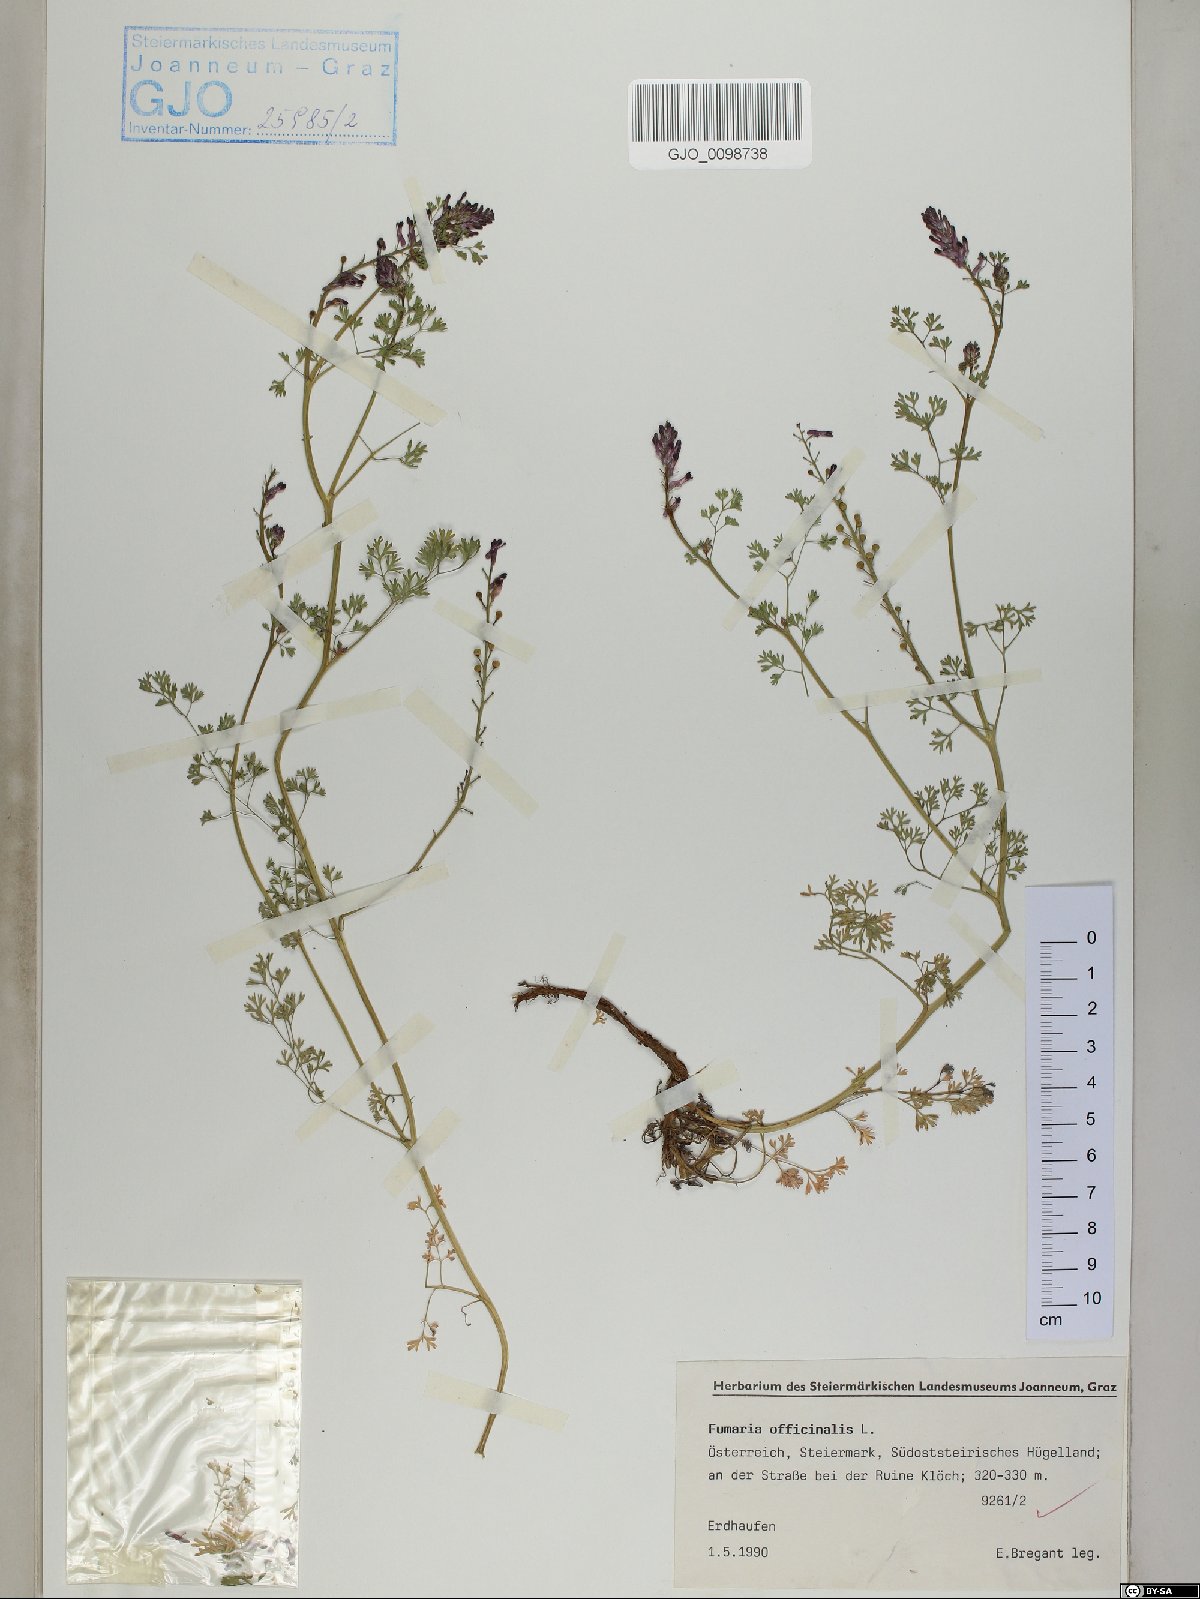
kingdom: Plantae
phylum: Tracheophyta
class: Magnoliopsida
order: Ranunculales
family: Papaveraceae
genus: Fumaria
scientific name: Fumaria officinalis
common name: Common fumitory
